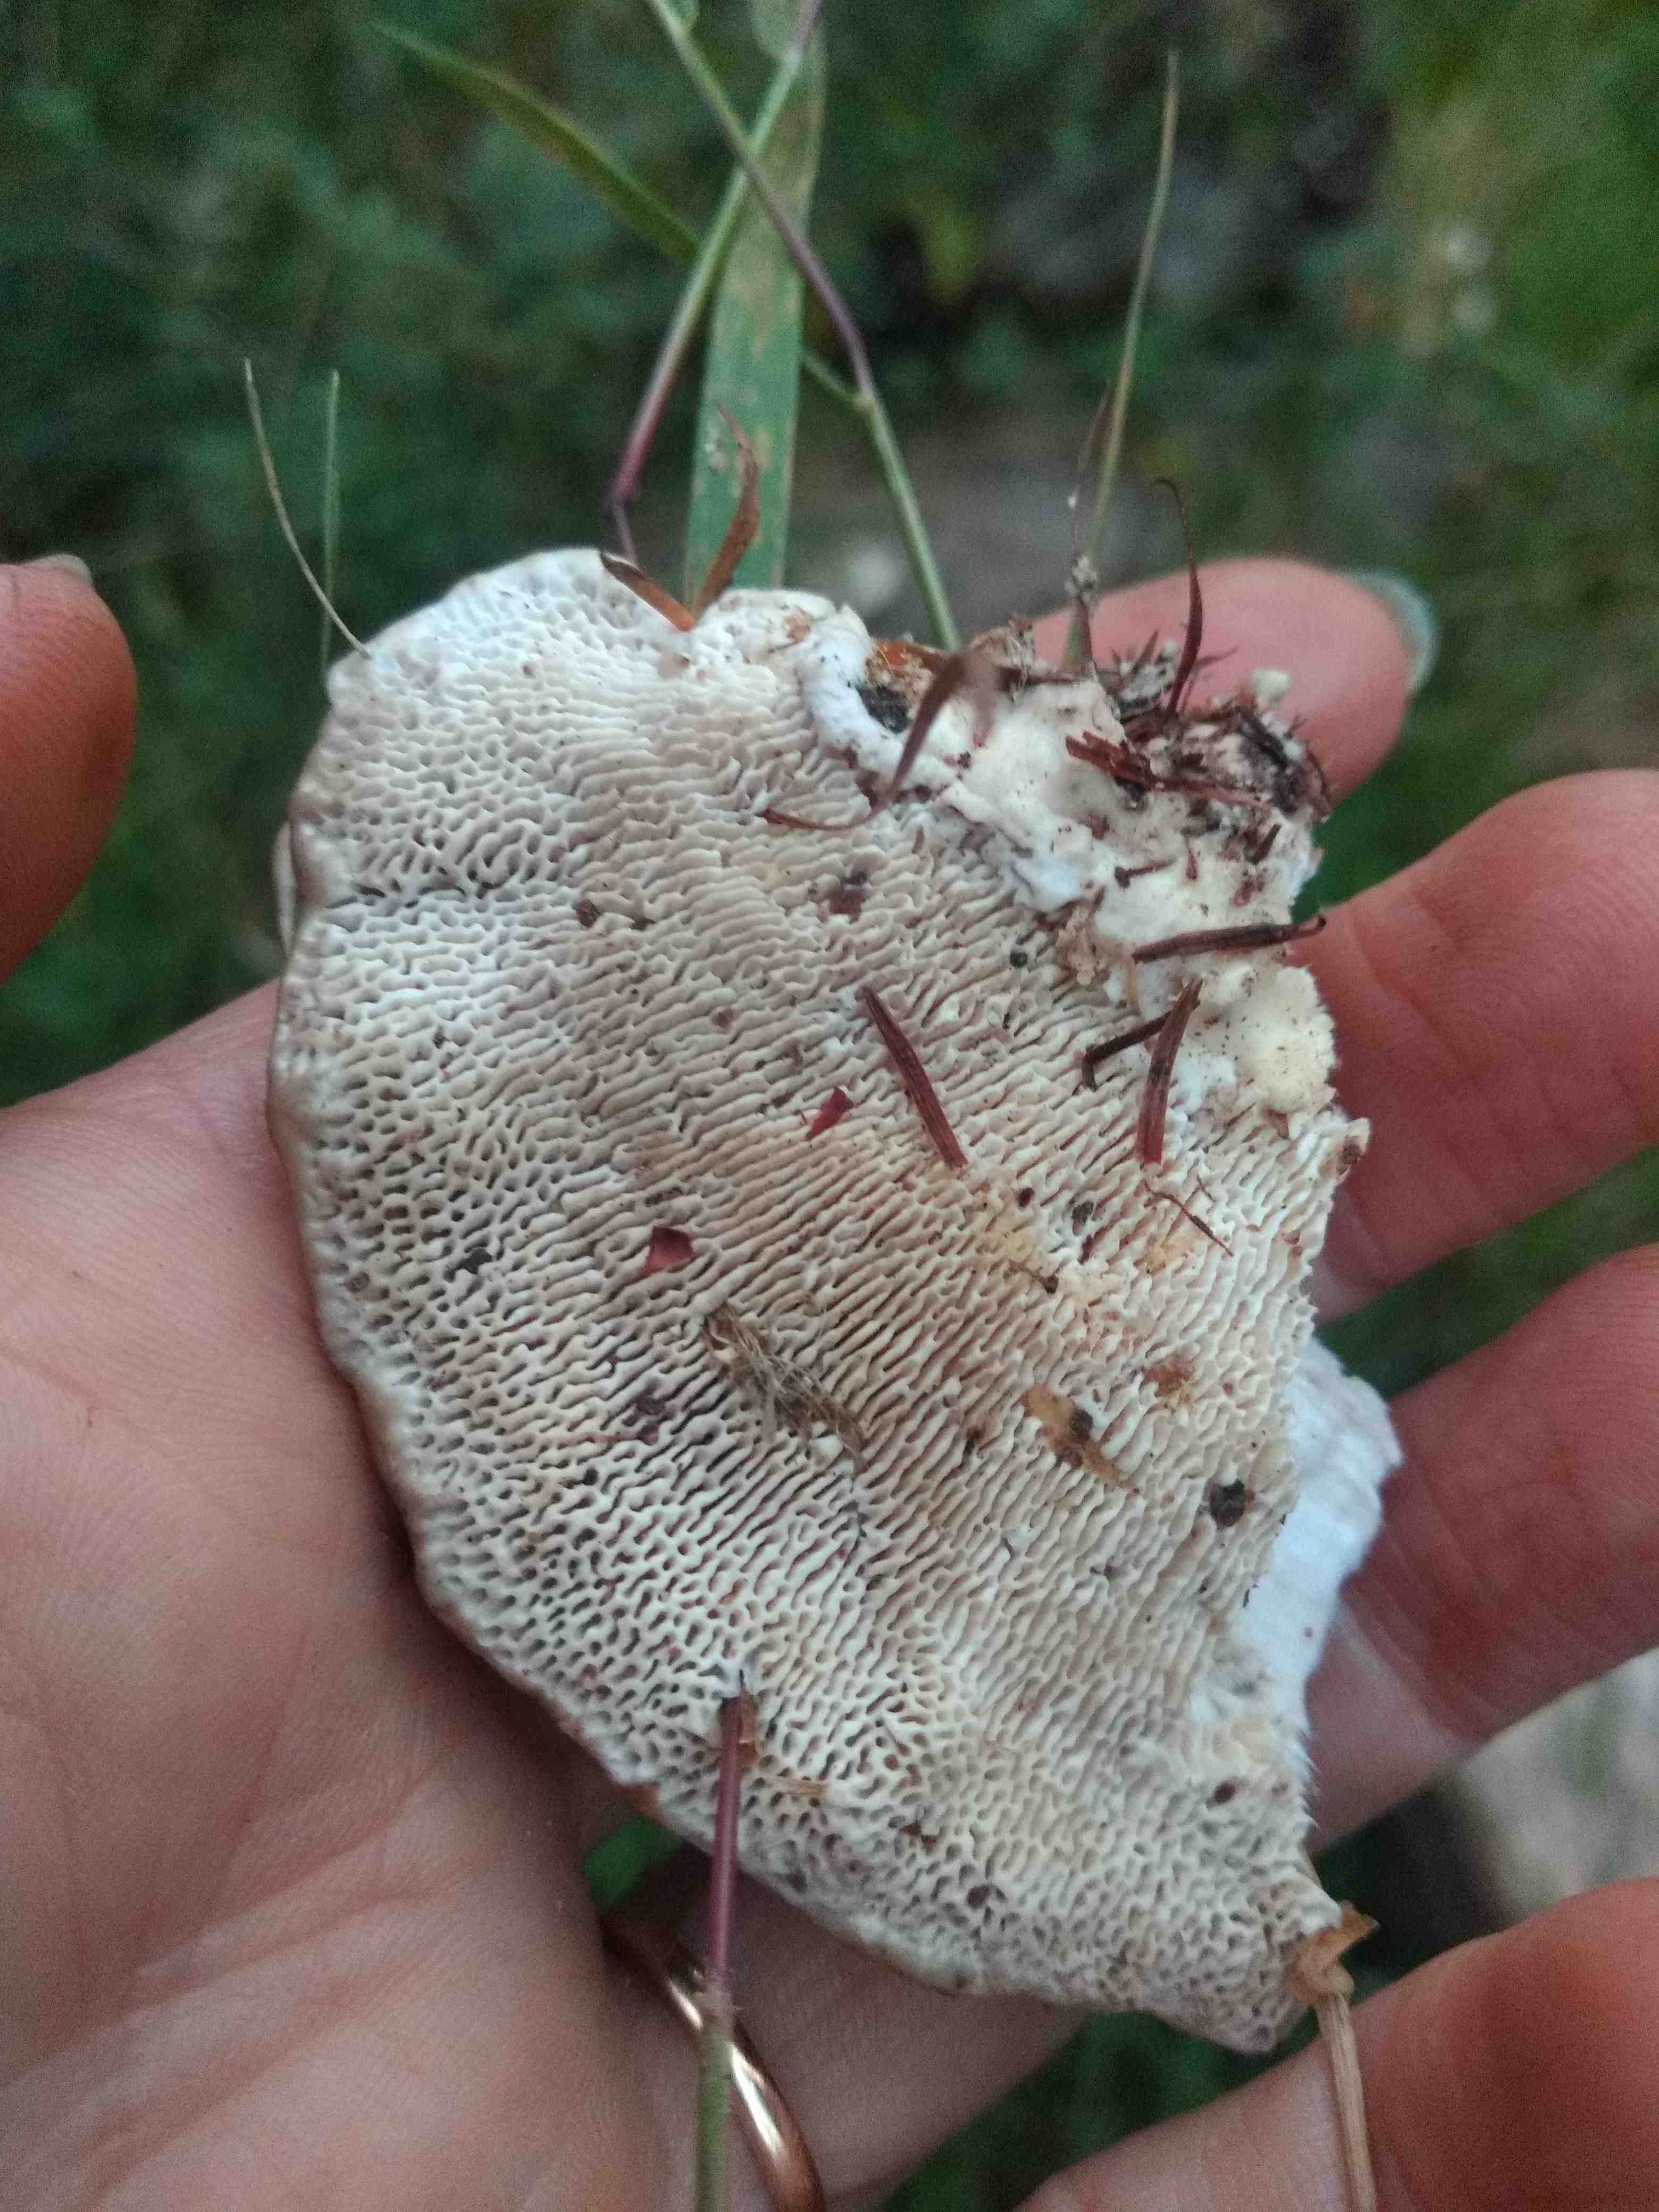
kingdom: Fungi
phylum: Basidiomycota
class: Agaricomycetes
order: Polyporales
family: Polyporaceae
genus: Trametes
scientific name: Trametes gibbosa
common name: puklet læderporesvamp
